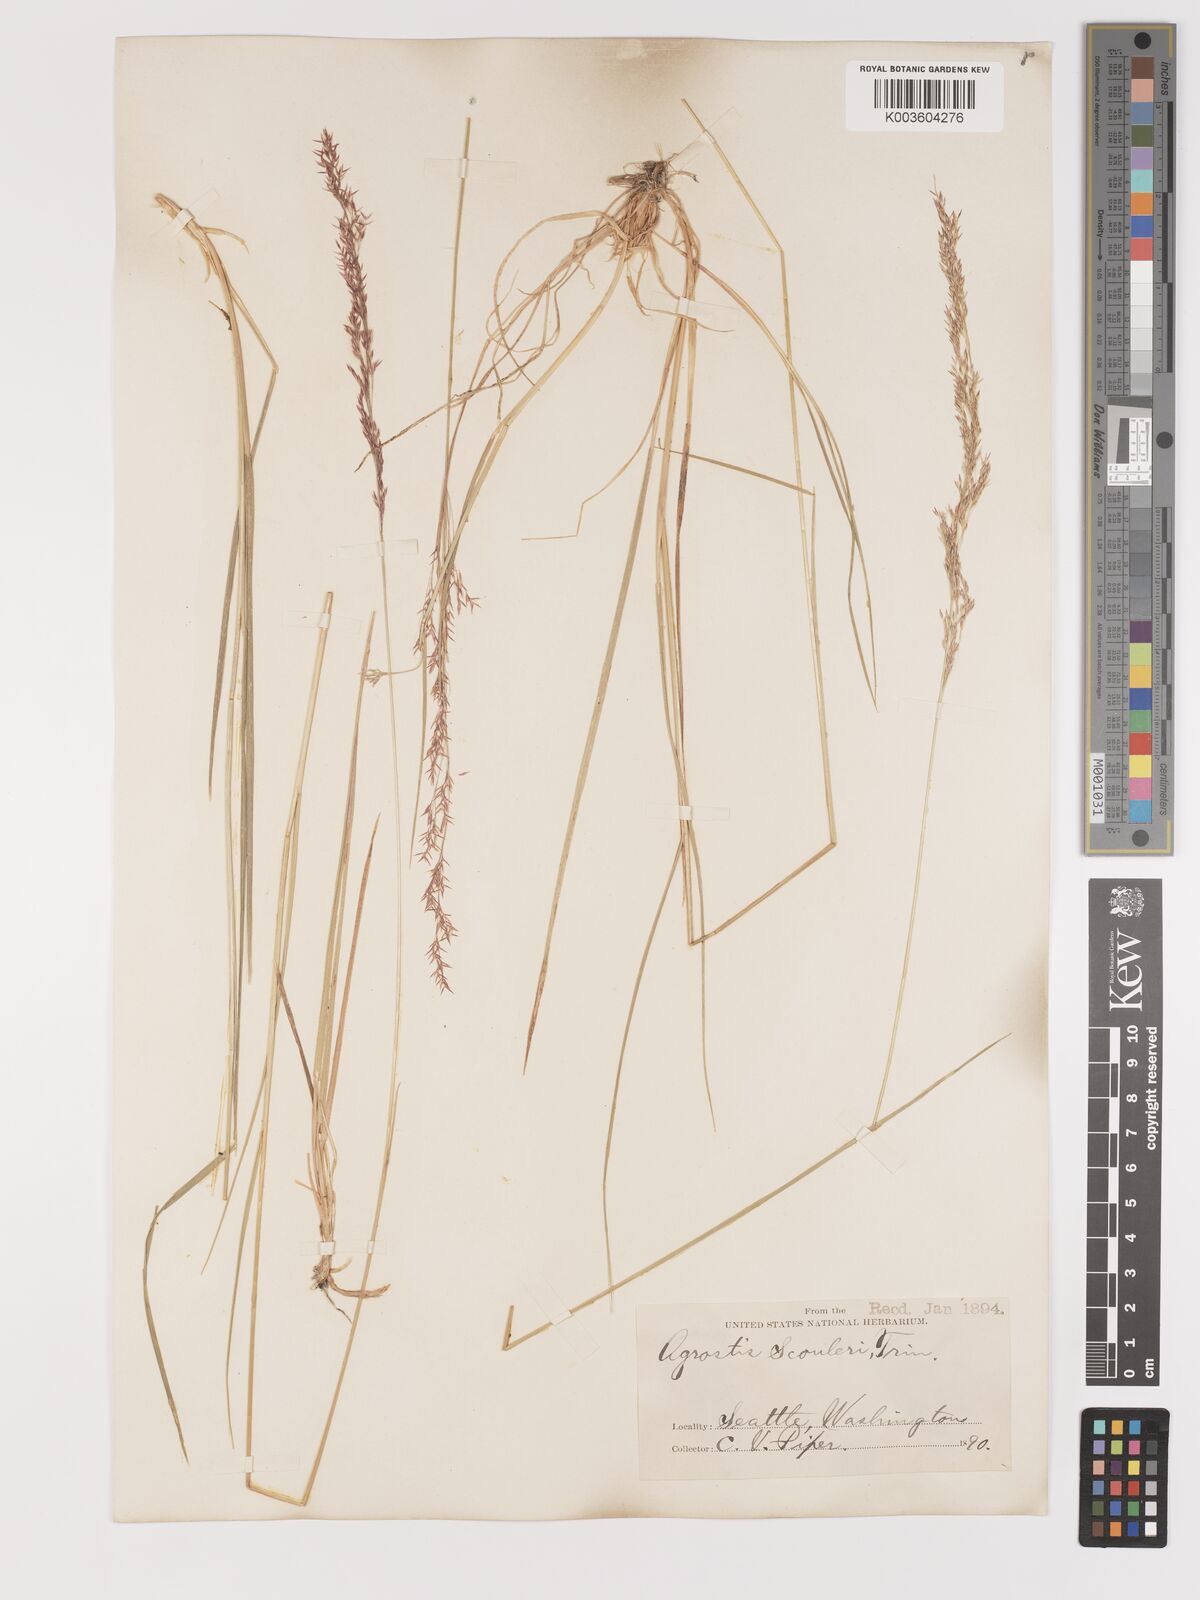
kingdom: Plantae
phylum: Tracheophyta
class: Liliopsida
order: Poales
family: Poaceae
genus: Agrostis
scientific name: Agrostis exarata
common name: Spike bent
